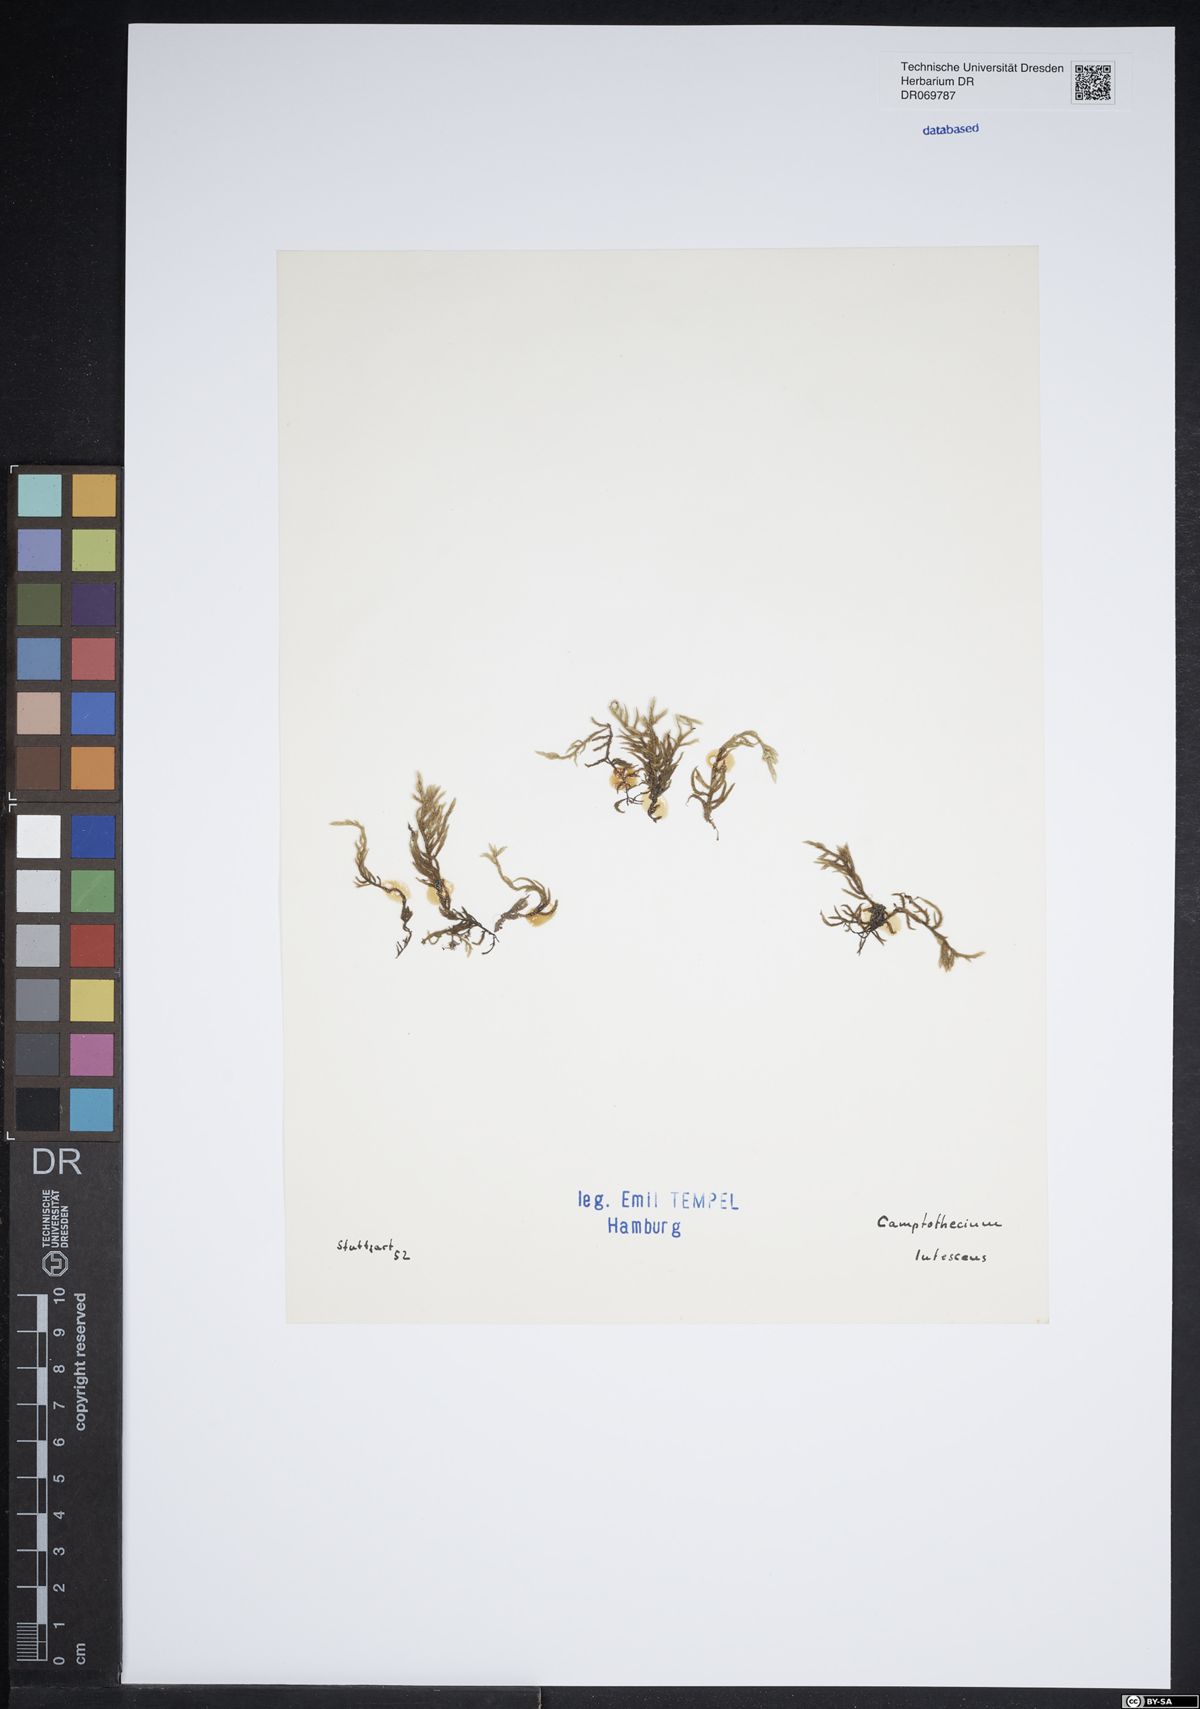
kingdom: Plantae
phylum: Bryophyta
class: Bryopsida
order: Hypnales
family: Brachytheciaceae
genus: Homalothecium
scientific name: Homalothecium lutescens
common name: Yellow feather-moss
